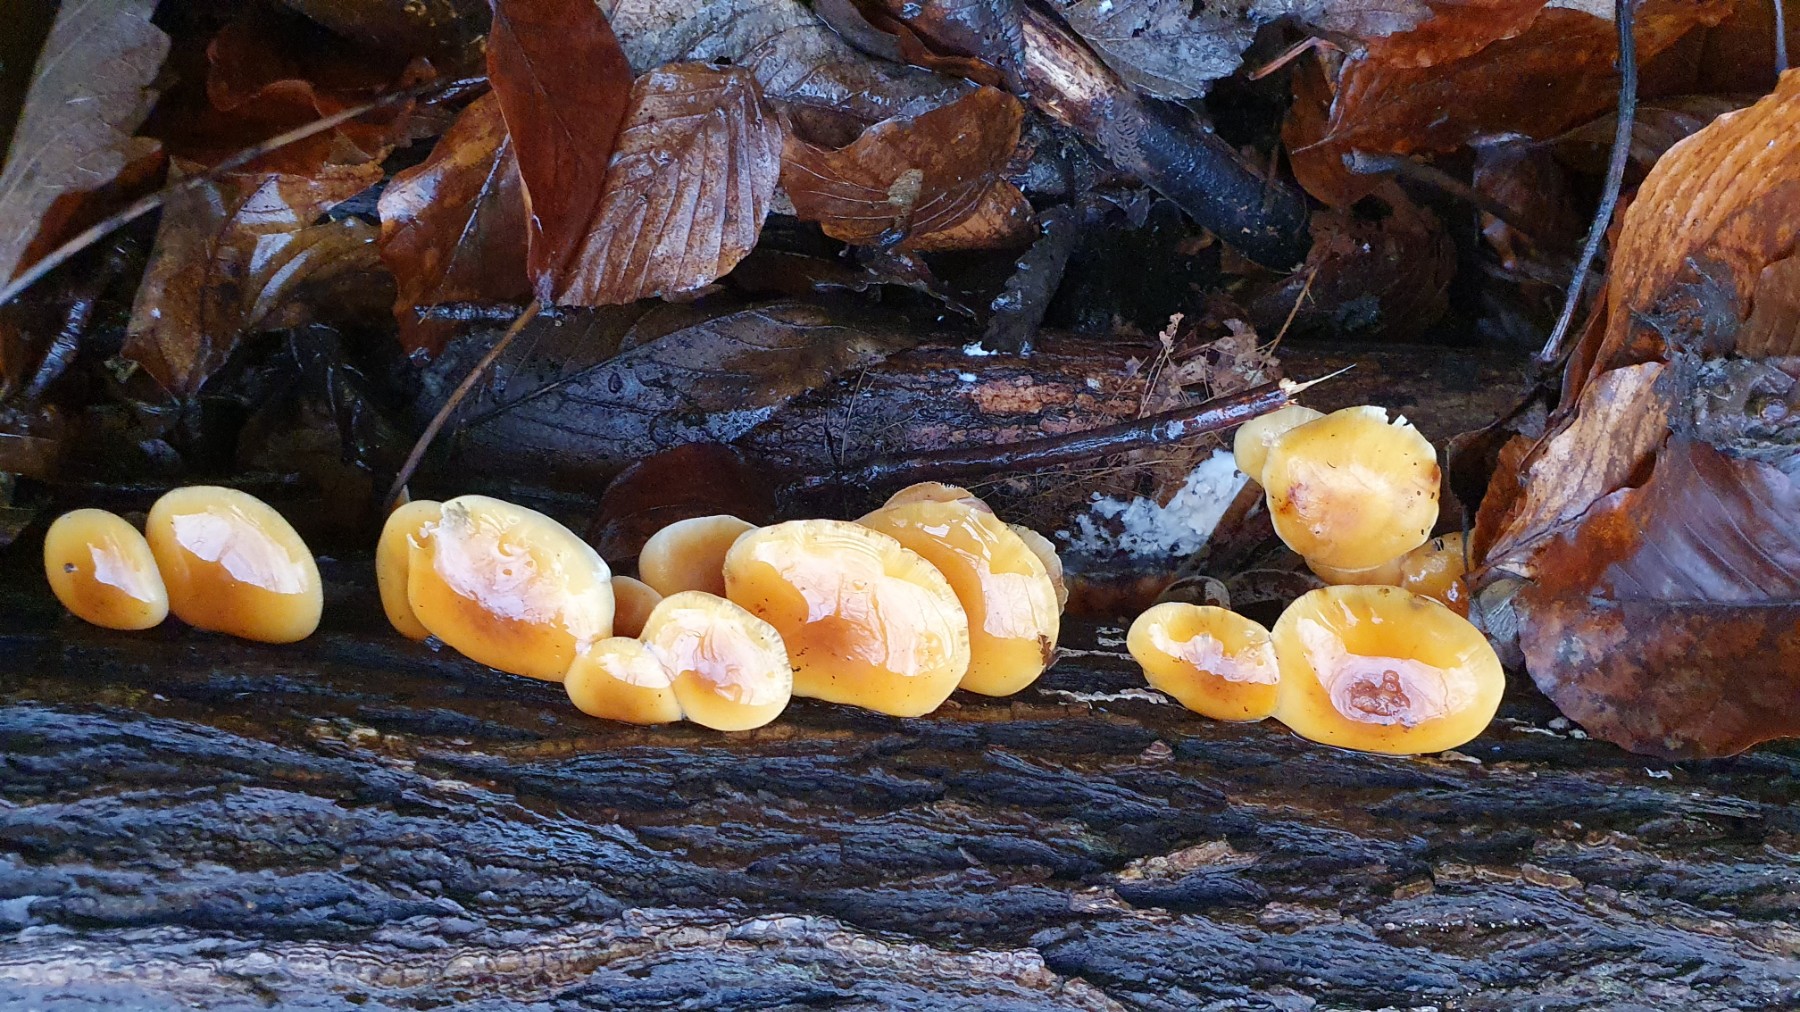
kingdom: Fungi
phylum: Basidiomycota
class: Agaricomycetes
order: Agaricales
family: Physalacriaceae
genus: Flammulina
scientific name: Flammulina velutipes
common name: gul fløjlsfod
